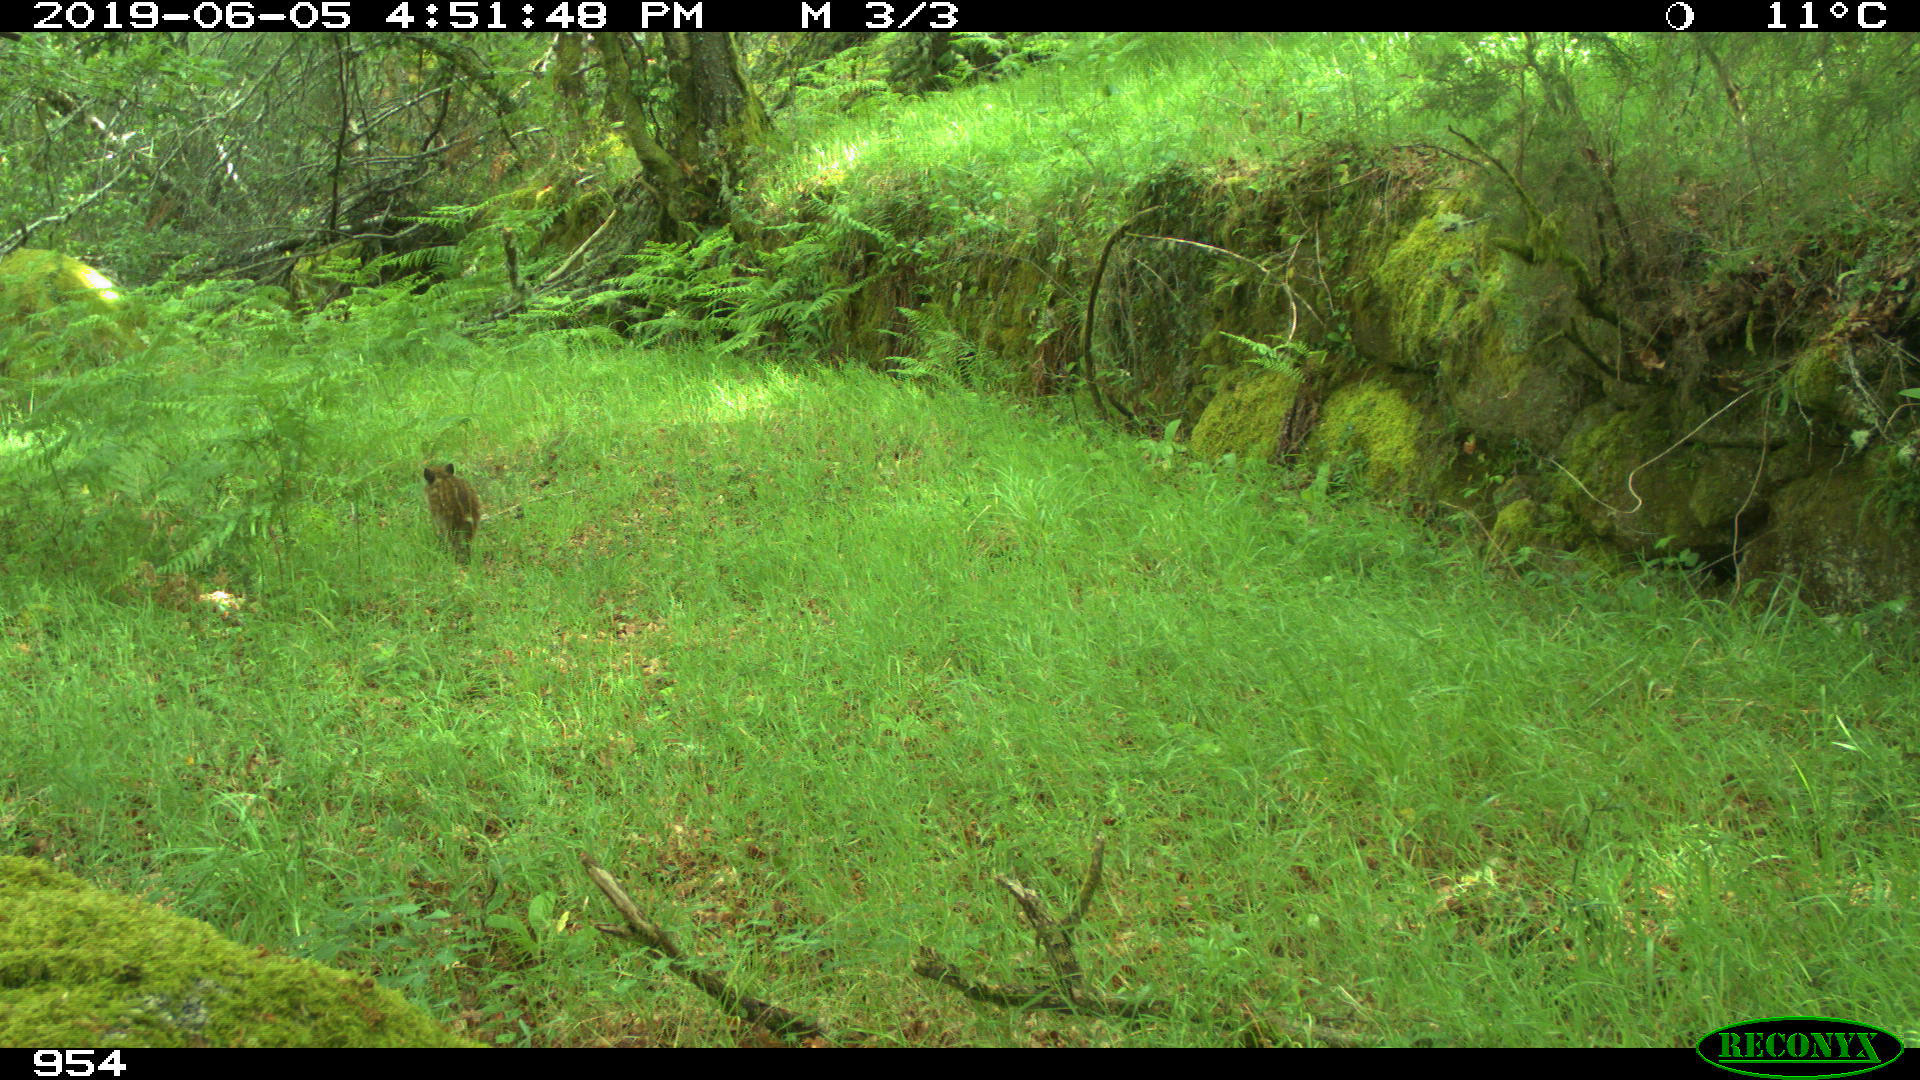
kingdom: Animalia
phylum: Chordata
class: Mammalia
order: Artiodactyla
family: Suidae
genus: Sus
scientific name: Sus scrofa
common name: Wild boar
